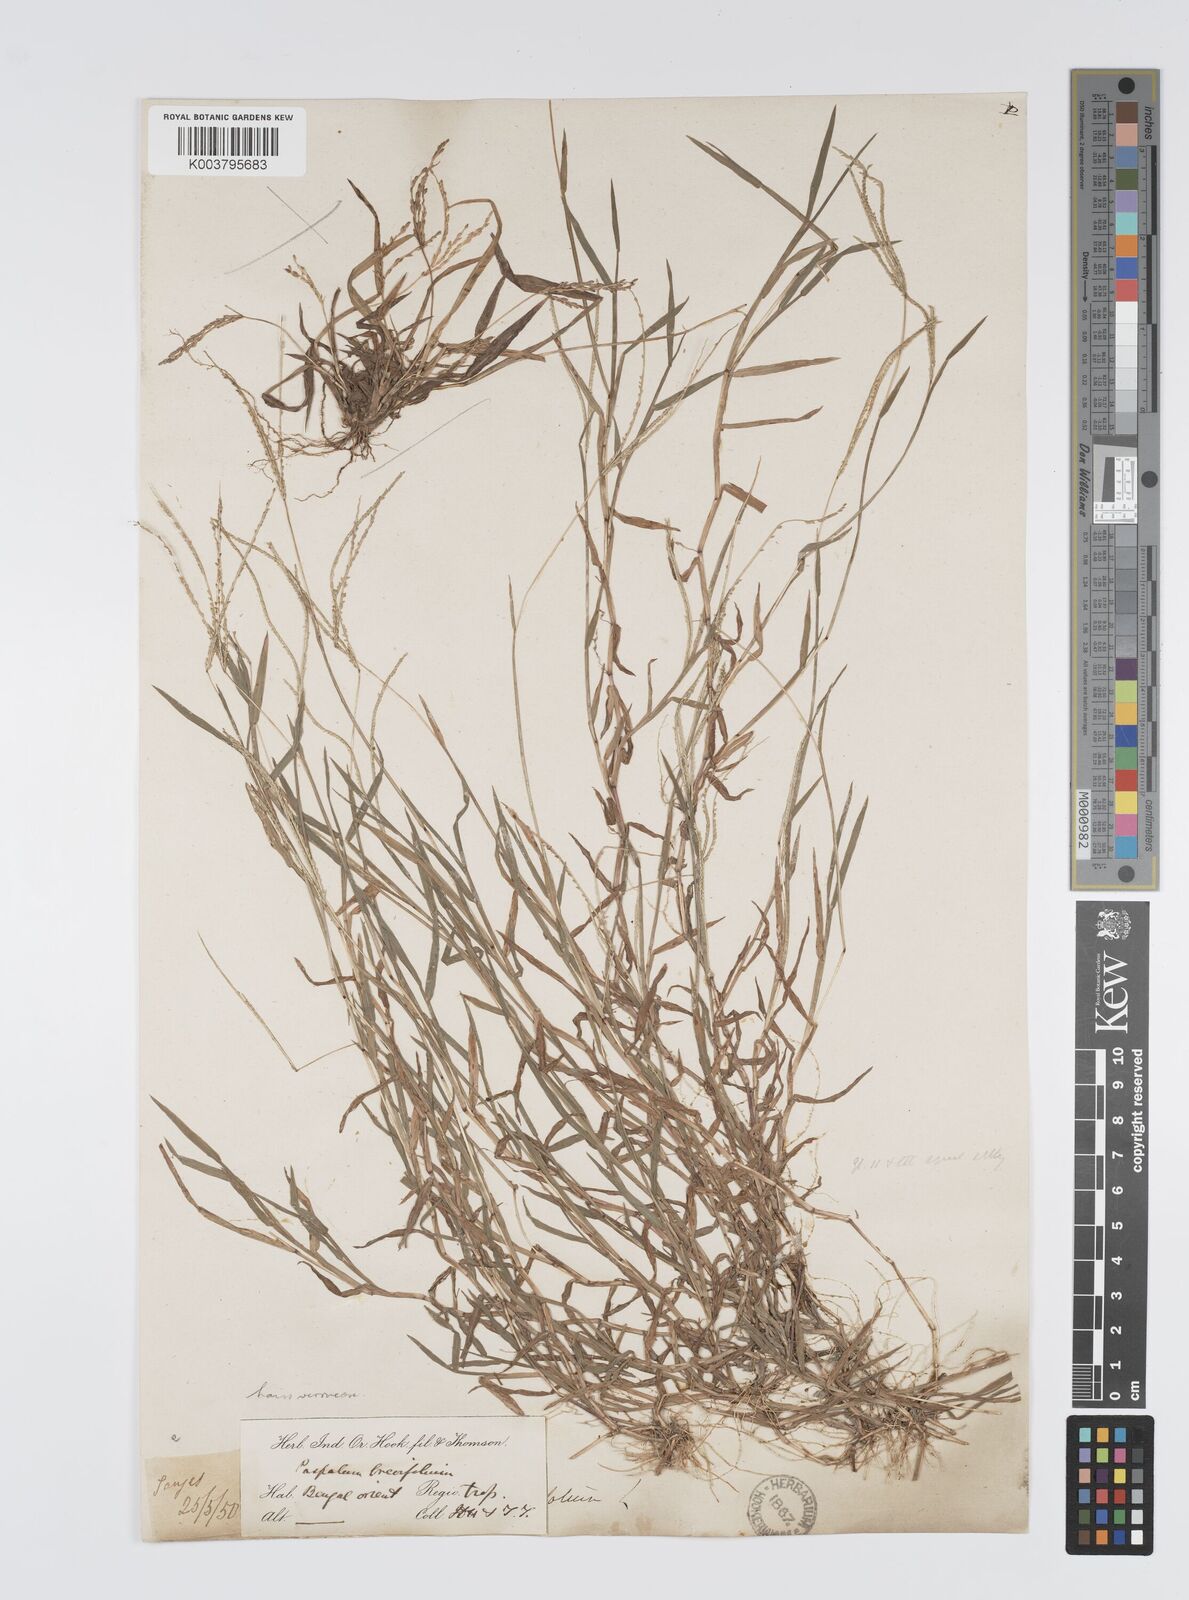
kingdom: Plantae
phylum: Tracheophyta
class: Liliopsida
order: Poales
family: Poaceae
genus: Digitaria
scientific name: Digitaria longiflora
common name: Wire crabgrass
